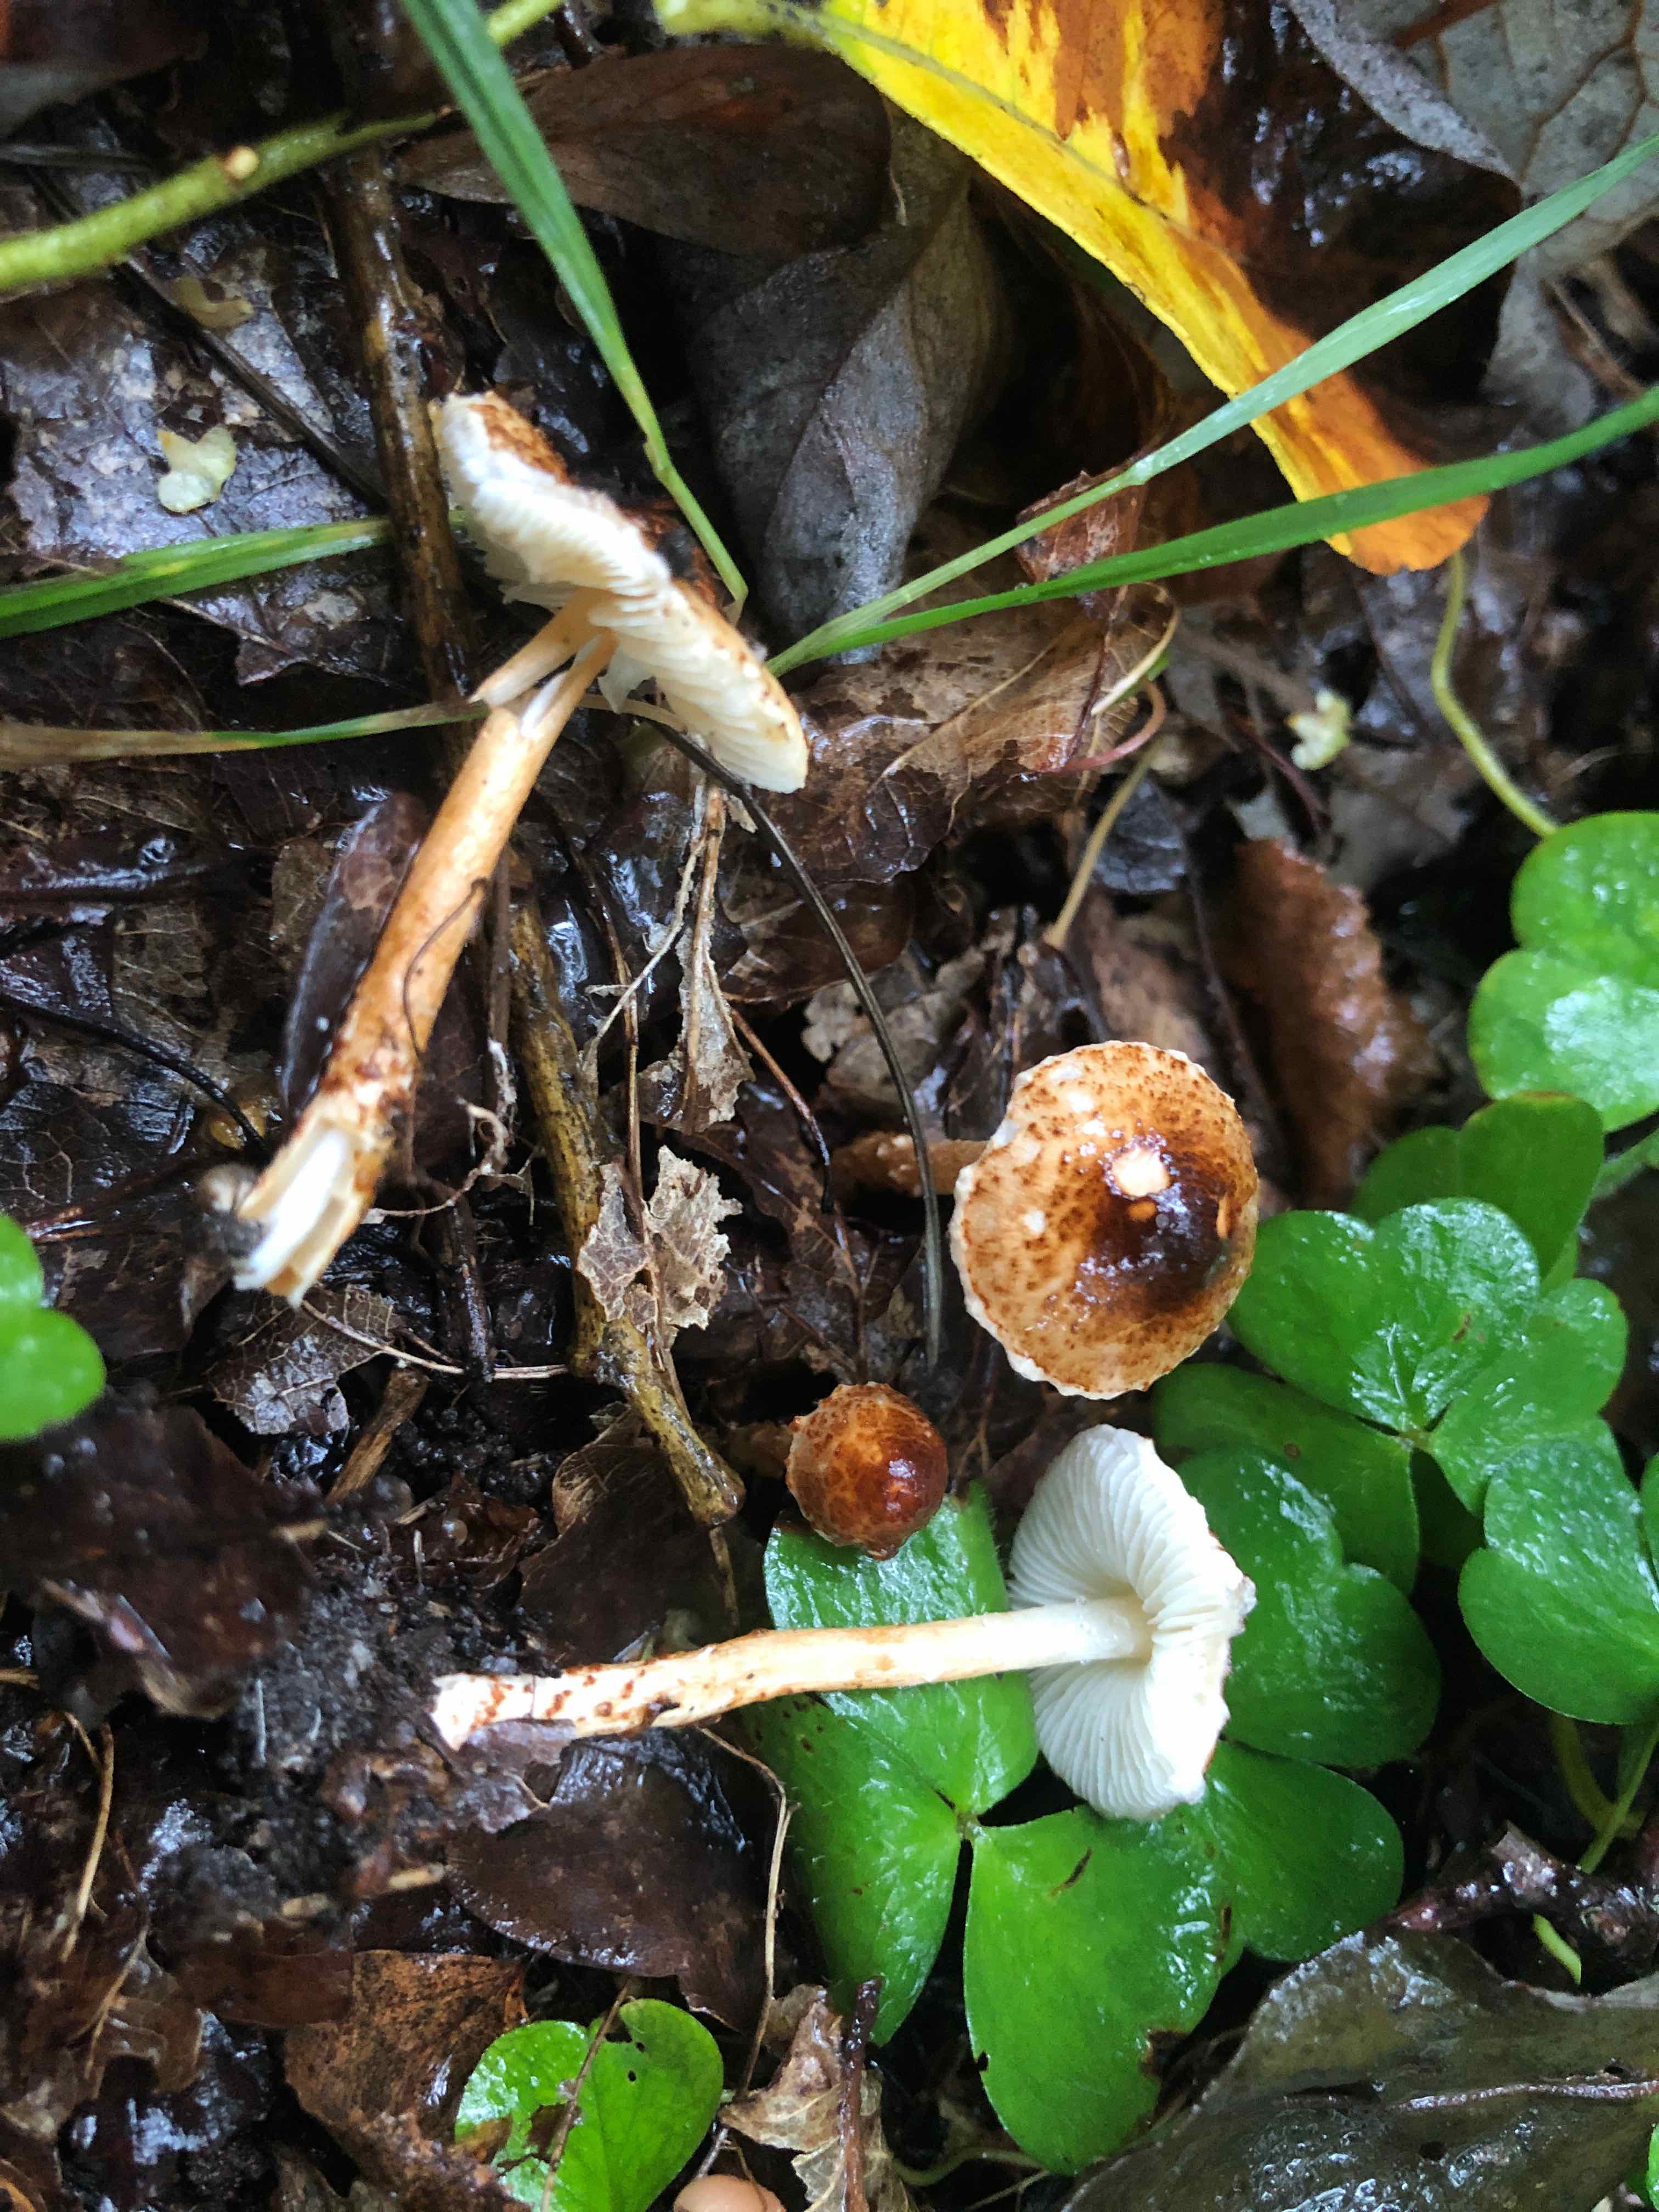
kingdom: Fungi
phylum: Basidiomycota
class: Agaricomycetes
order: Agaricales
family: Agaricaceae
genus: Lepiota
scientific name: Lepiota castanea
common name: kastaniebrun parasolhat
